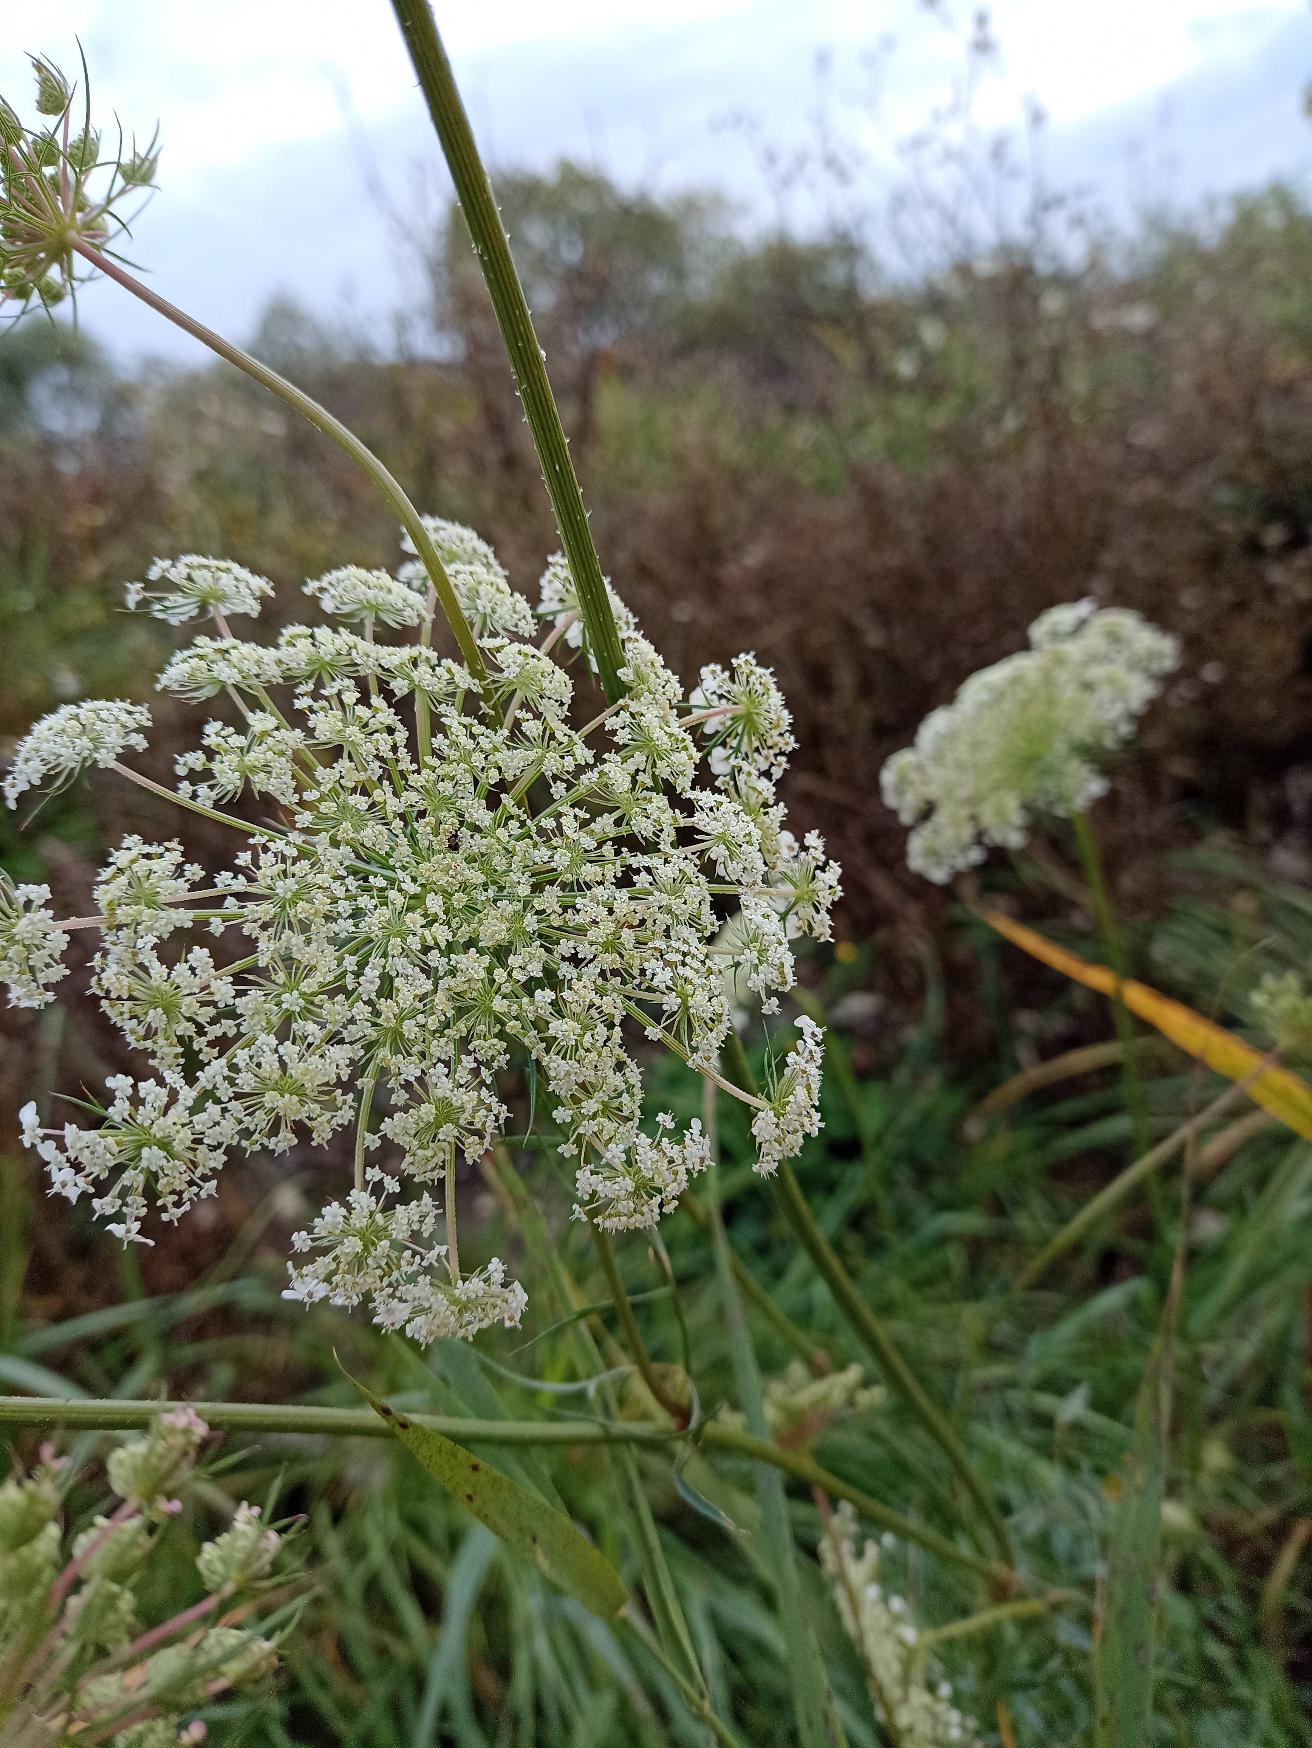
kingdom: Plantae
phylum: Tracheophyta
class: Magnoliopsida
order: Apiales
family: Apiaceae
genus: Daucus
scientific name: Daucus carota
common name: Gulerod
